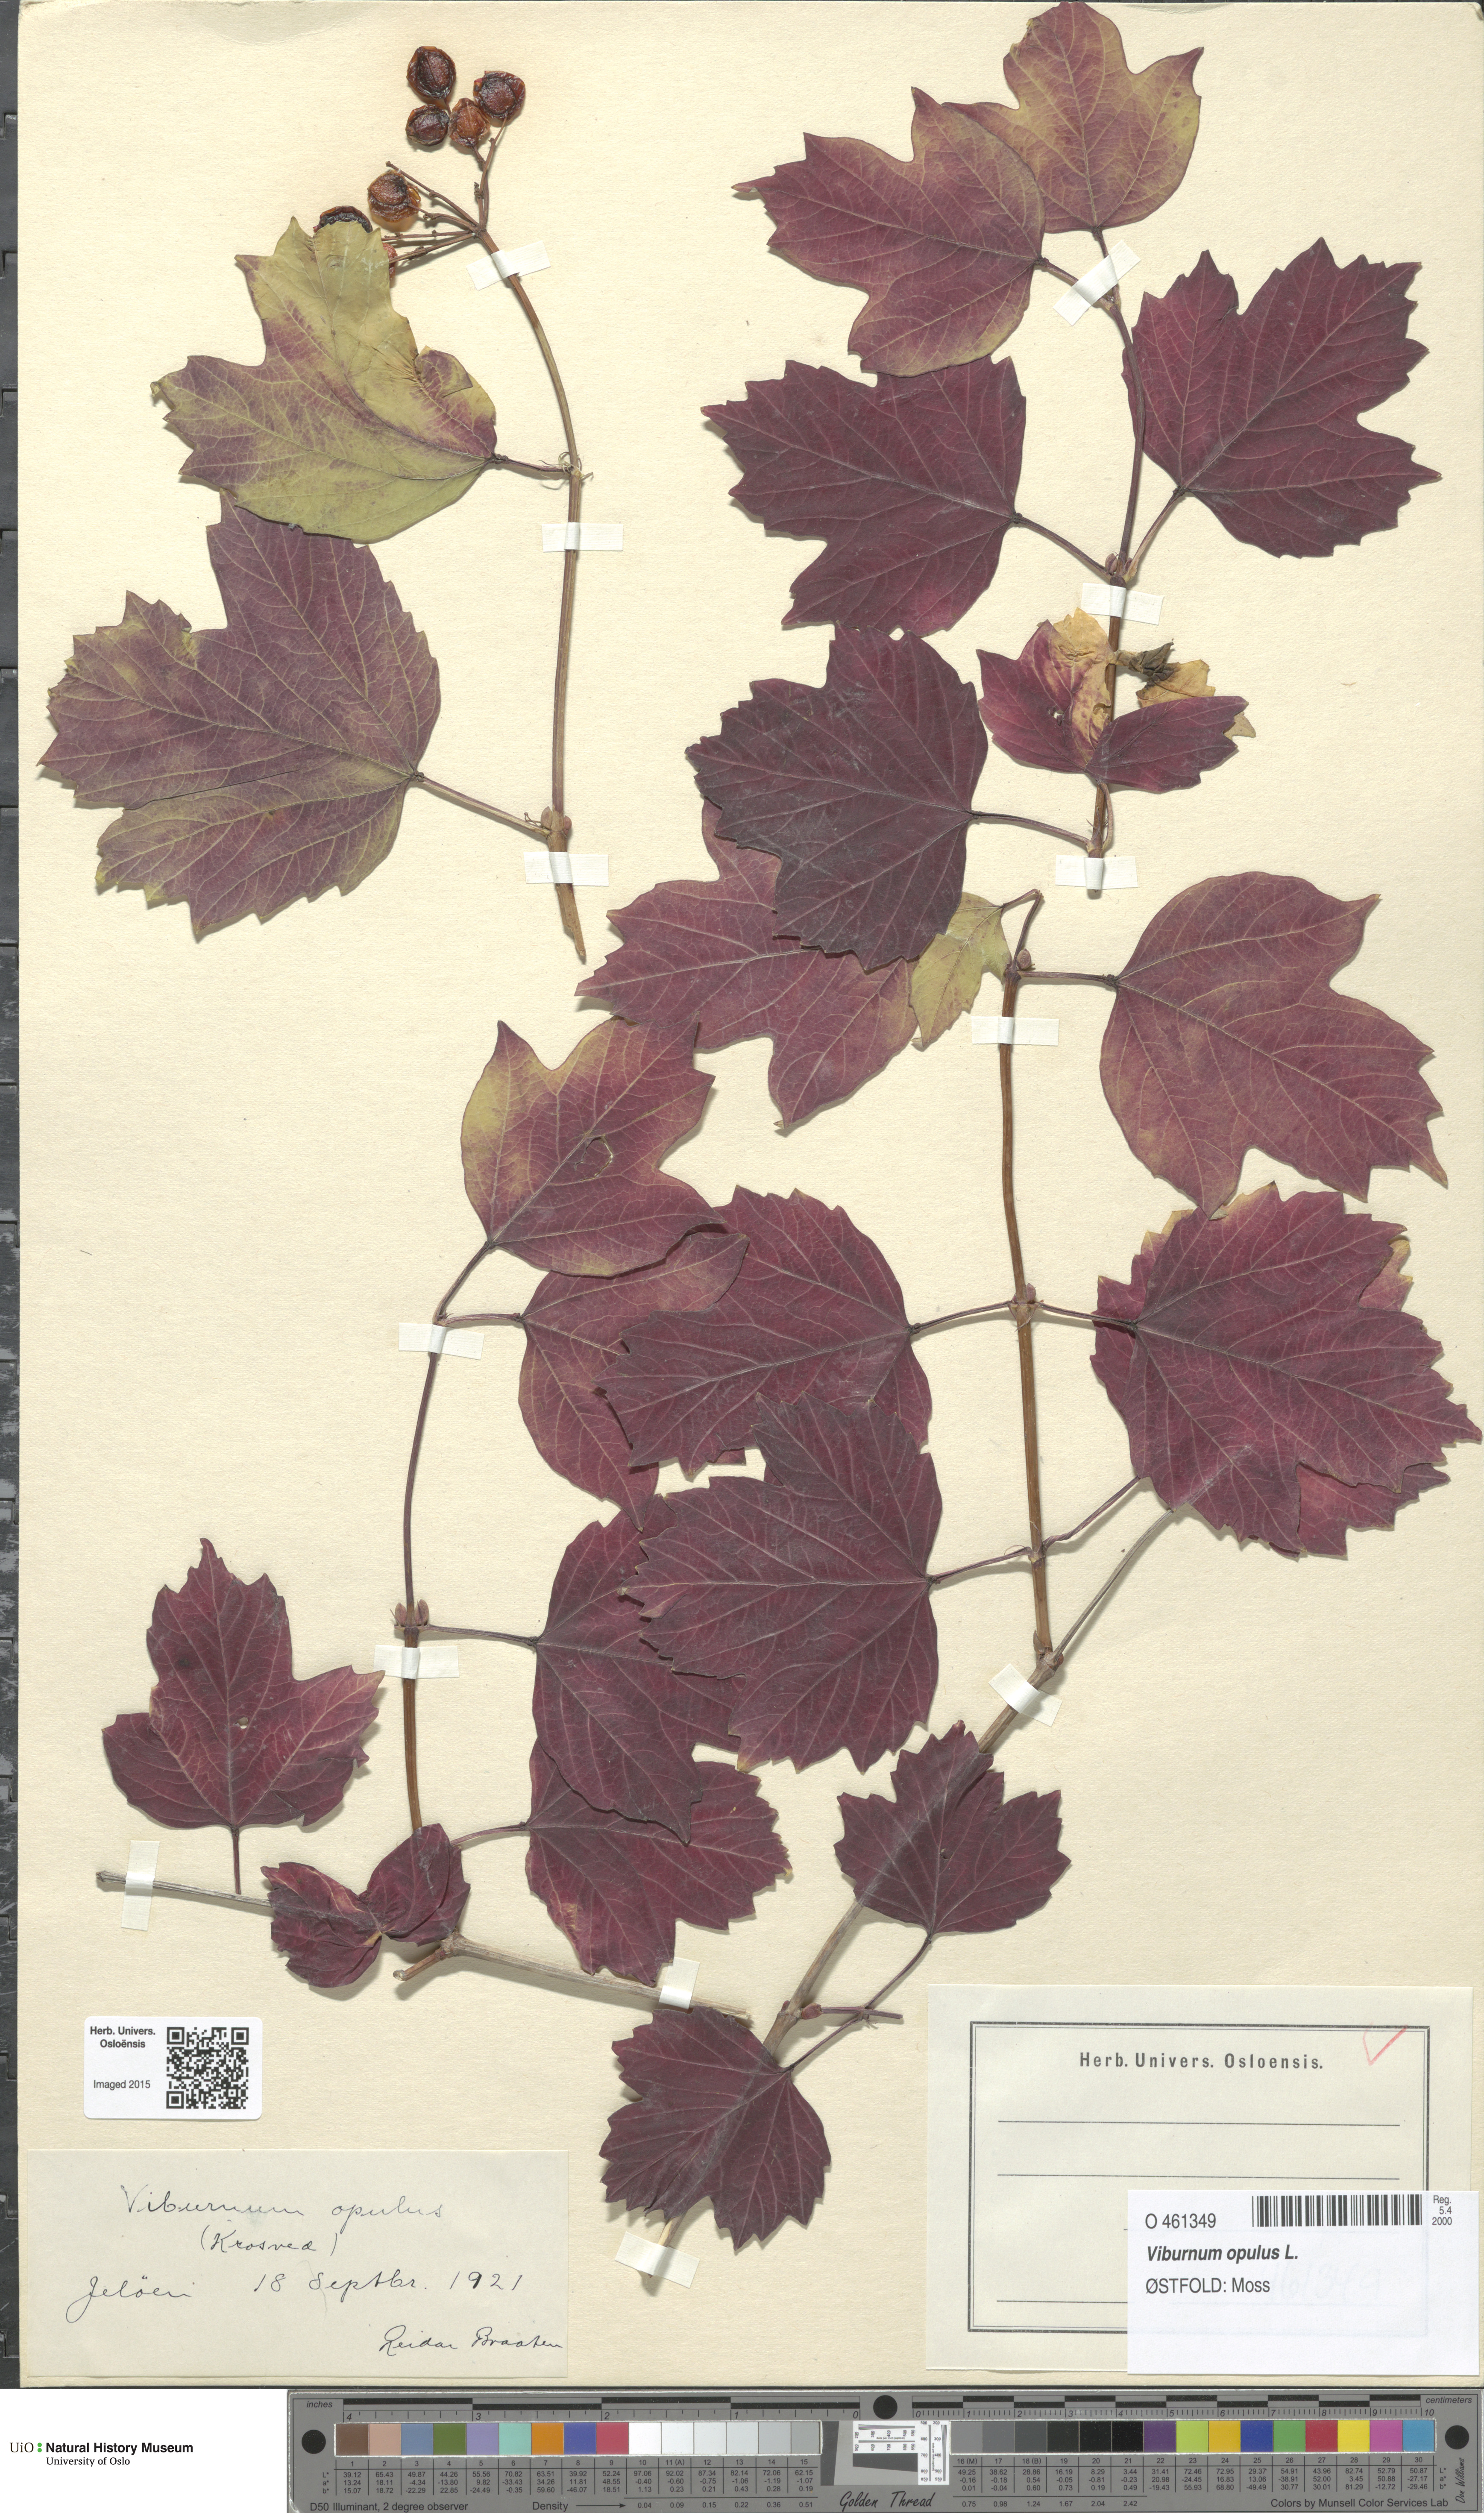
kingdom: Plantae
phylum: Tracheophyta
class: Magnoliopsida
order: Dipsacales
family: Viburnaceae
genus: Viburnum
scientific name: Viburnum opulus
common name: Guelder-rose
